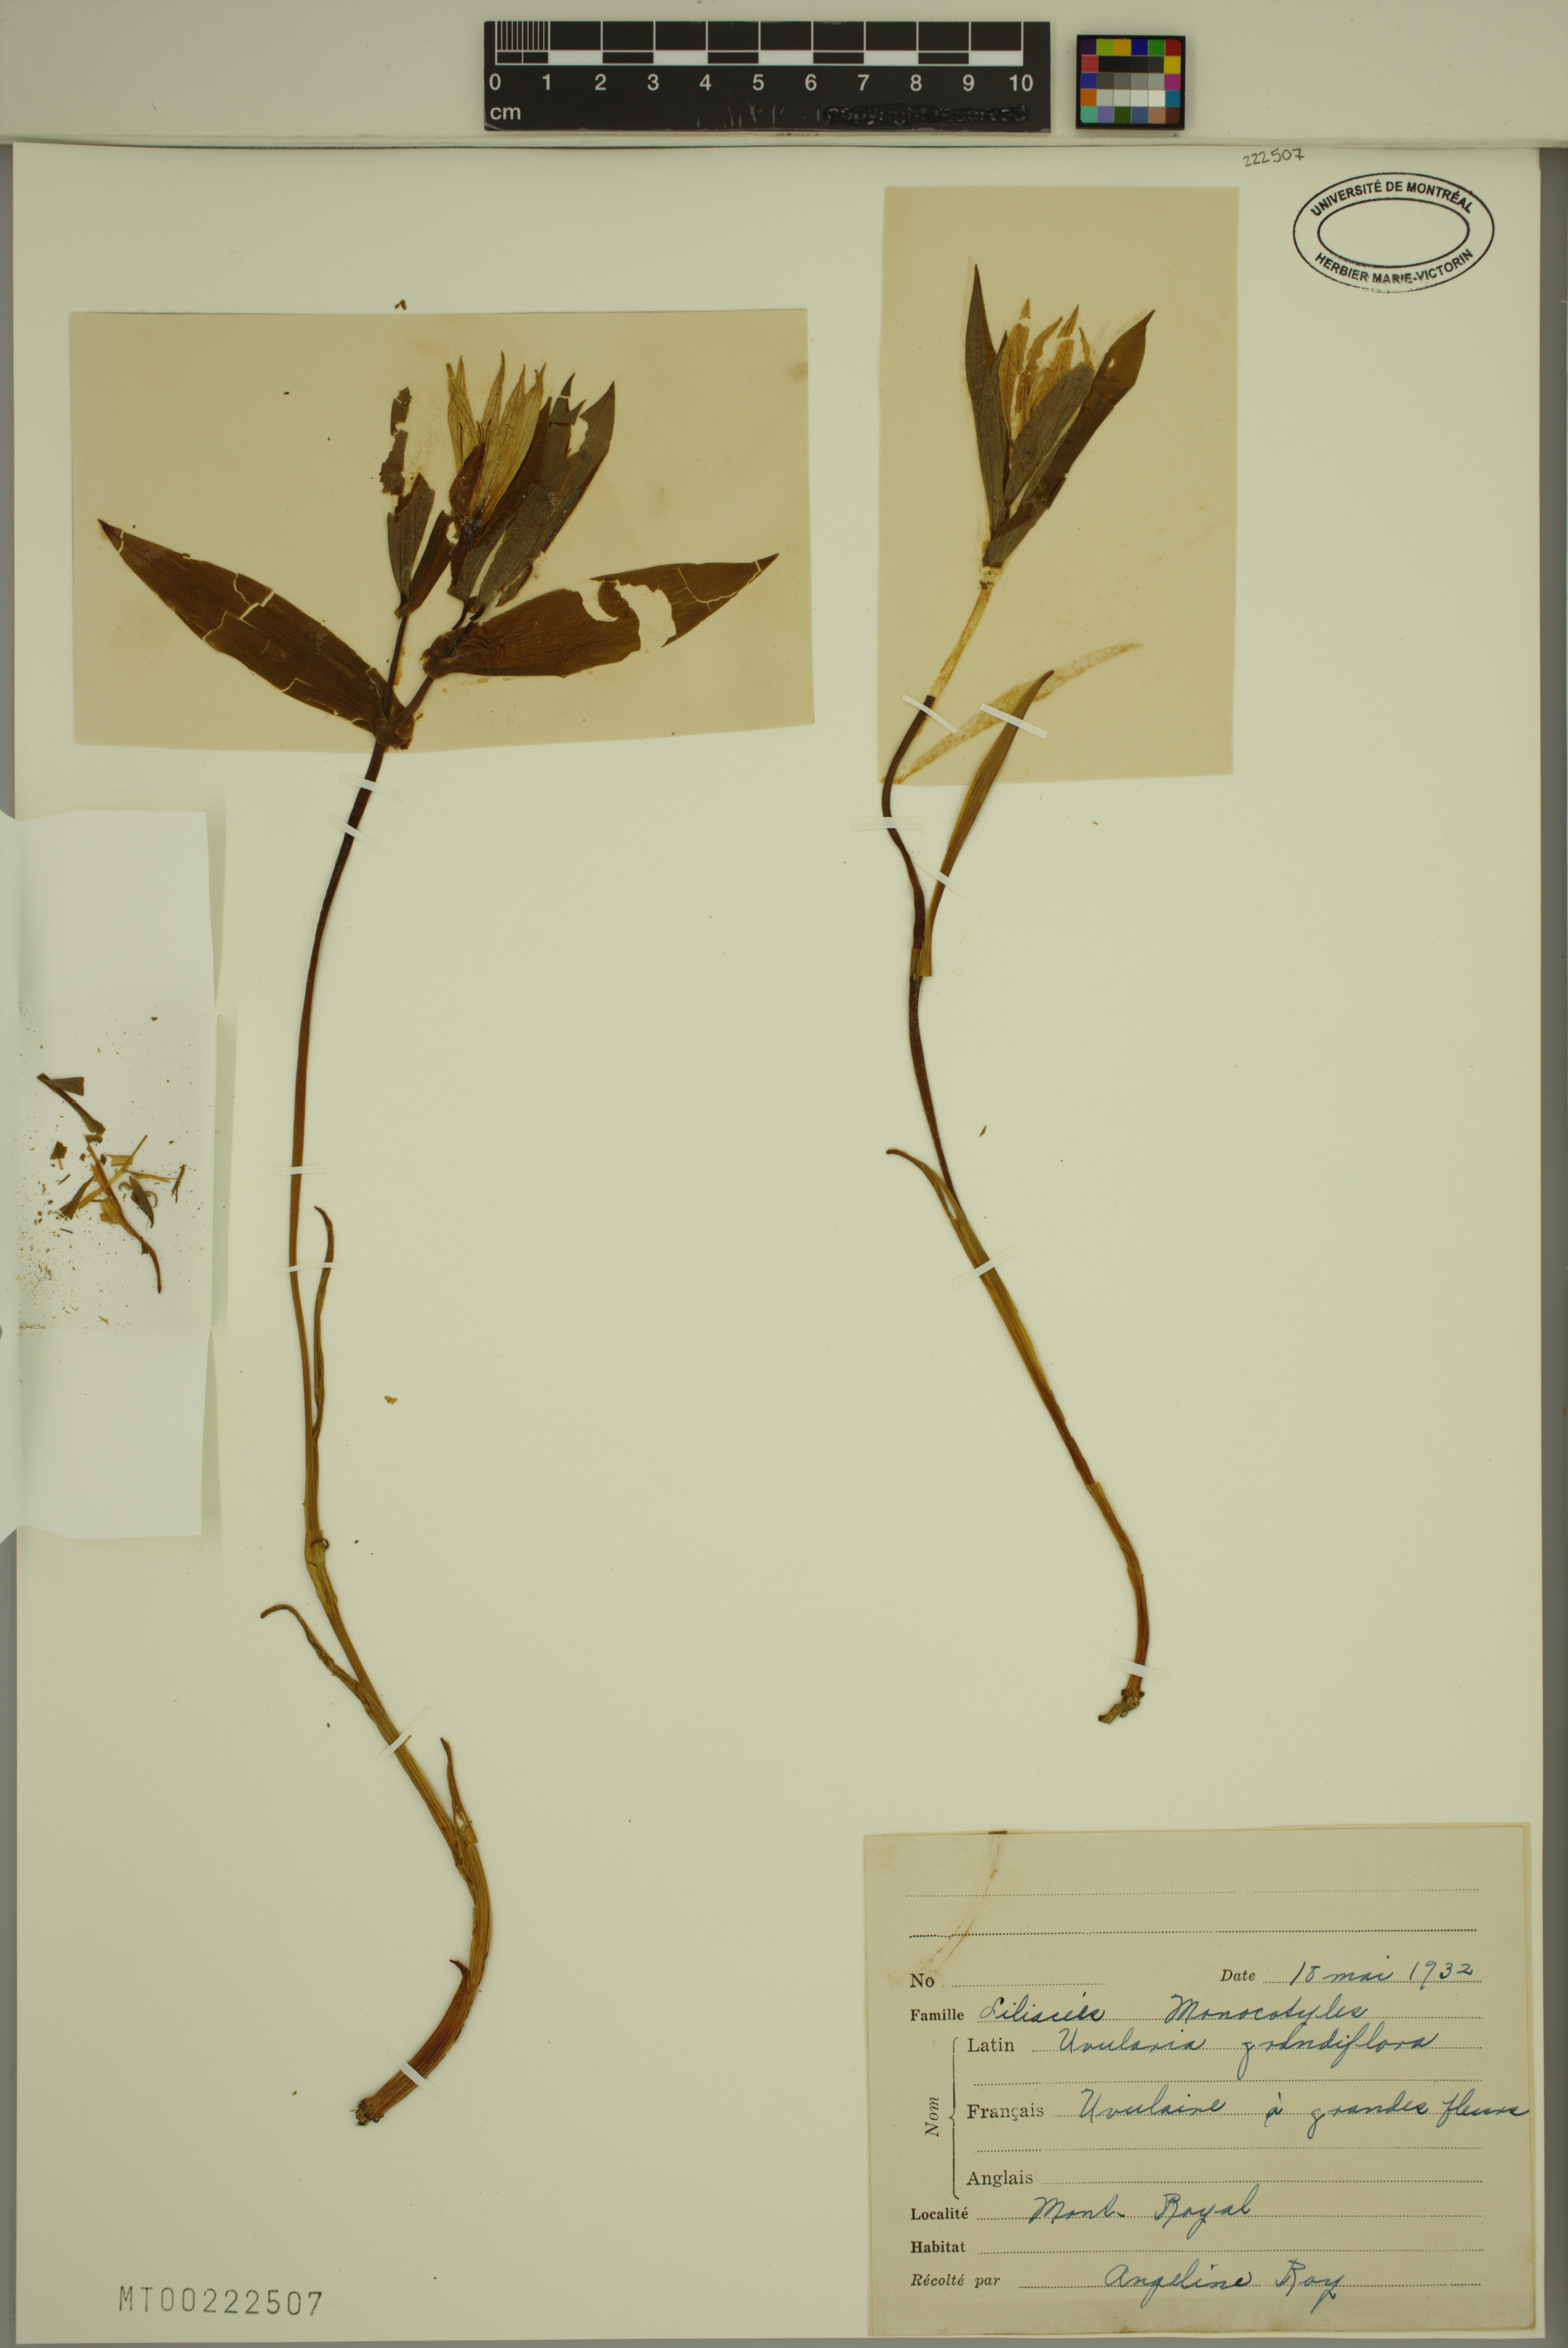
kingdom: Plantae
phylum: Tracheophyta
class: Liliopsida
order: Liliales
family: Colchicaceae
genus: Uvularia
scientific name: Uvularia grandiflora
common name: Bellwort
